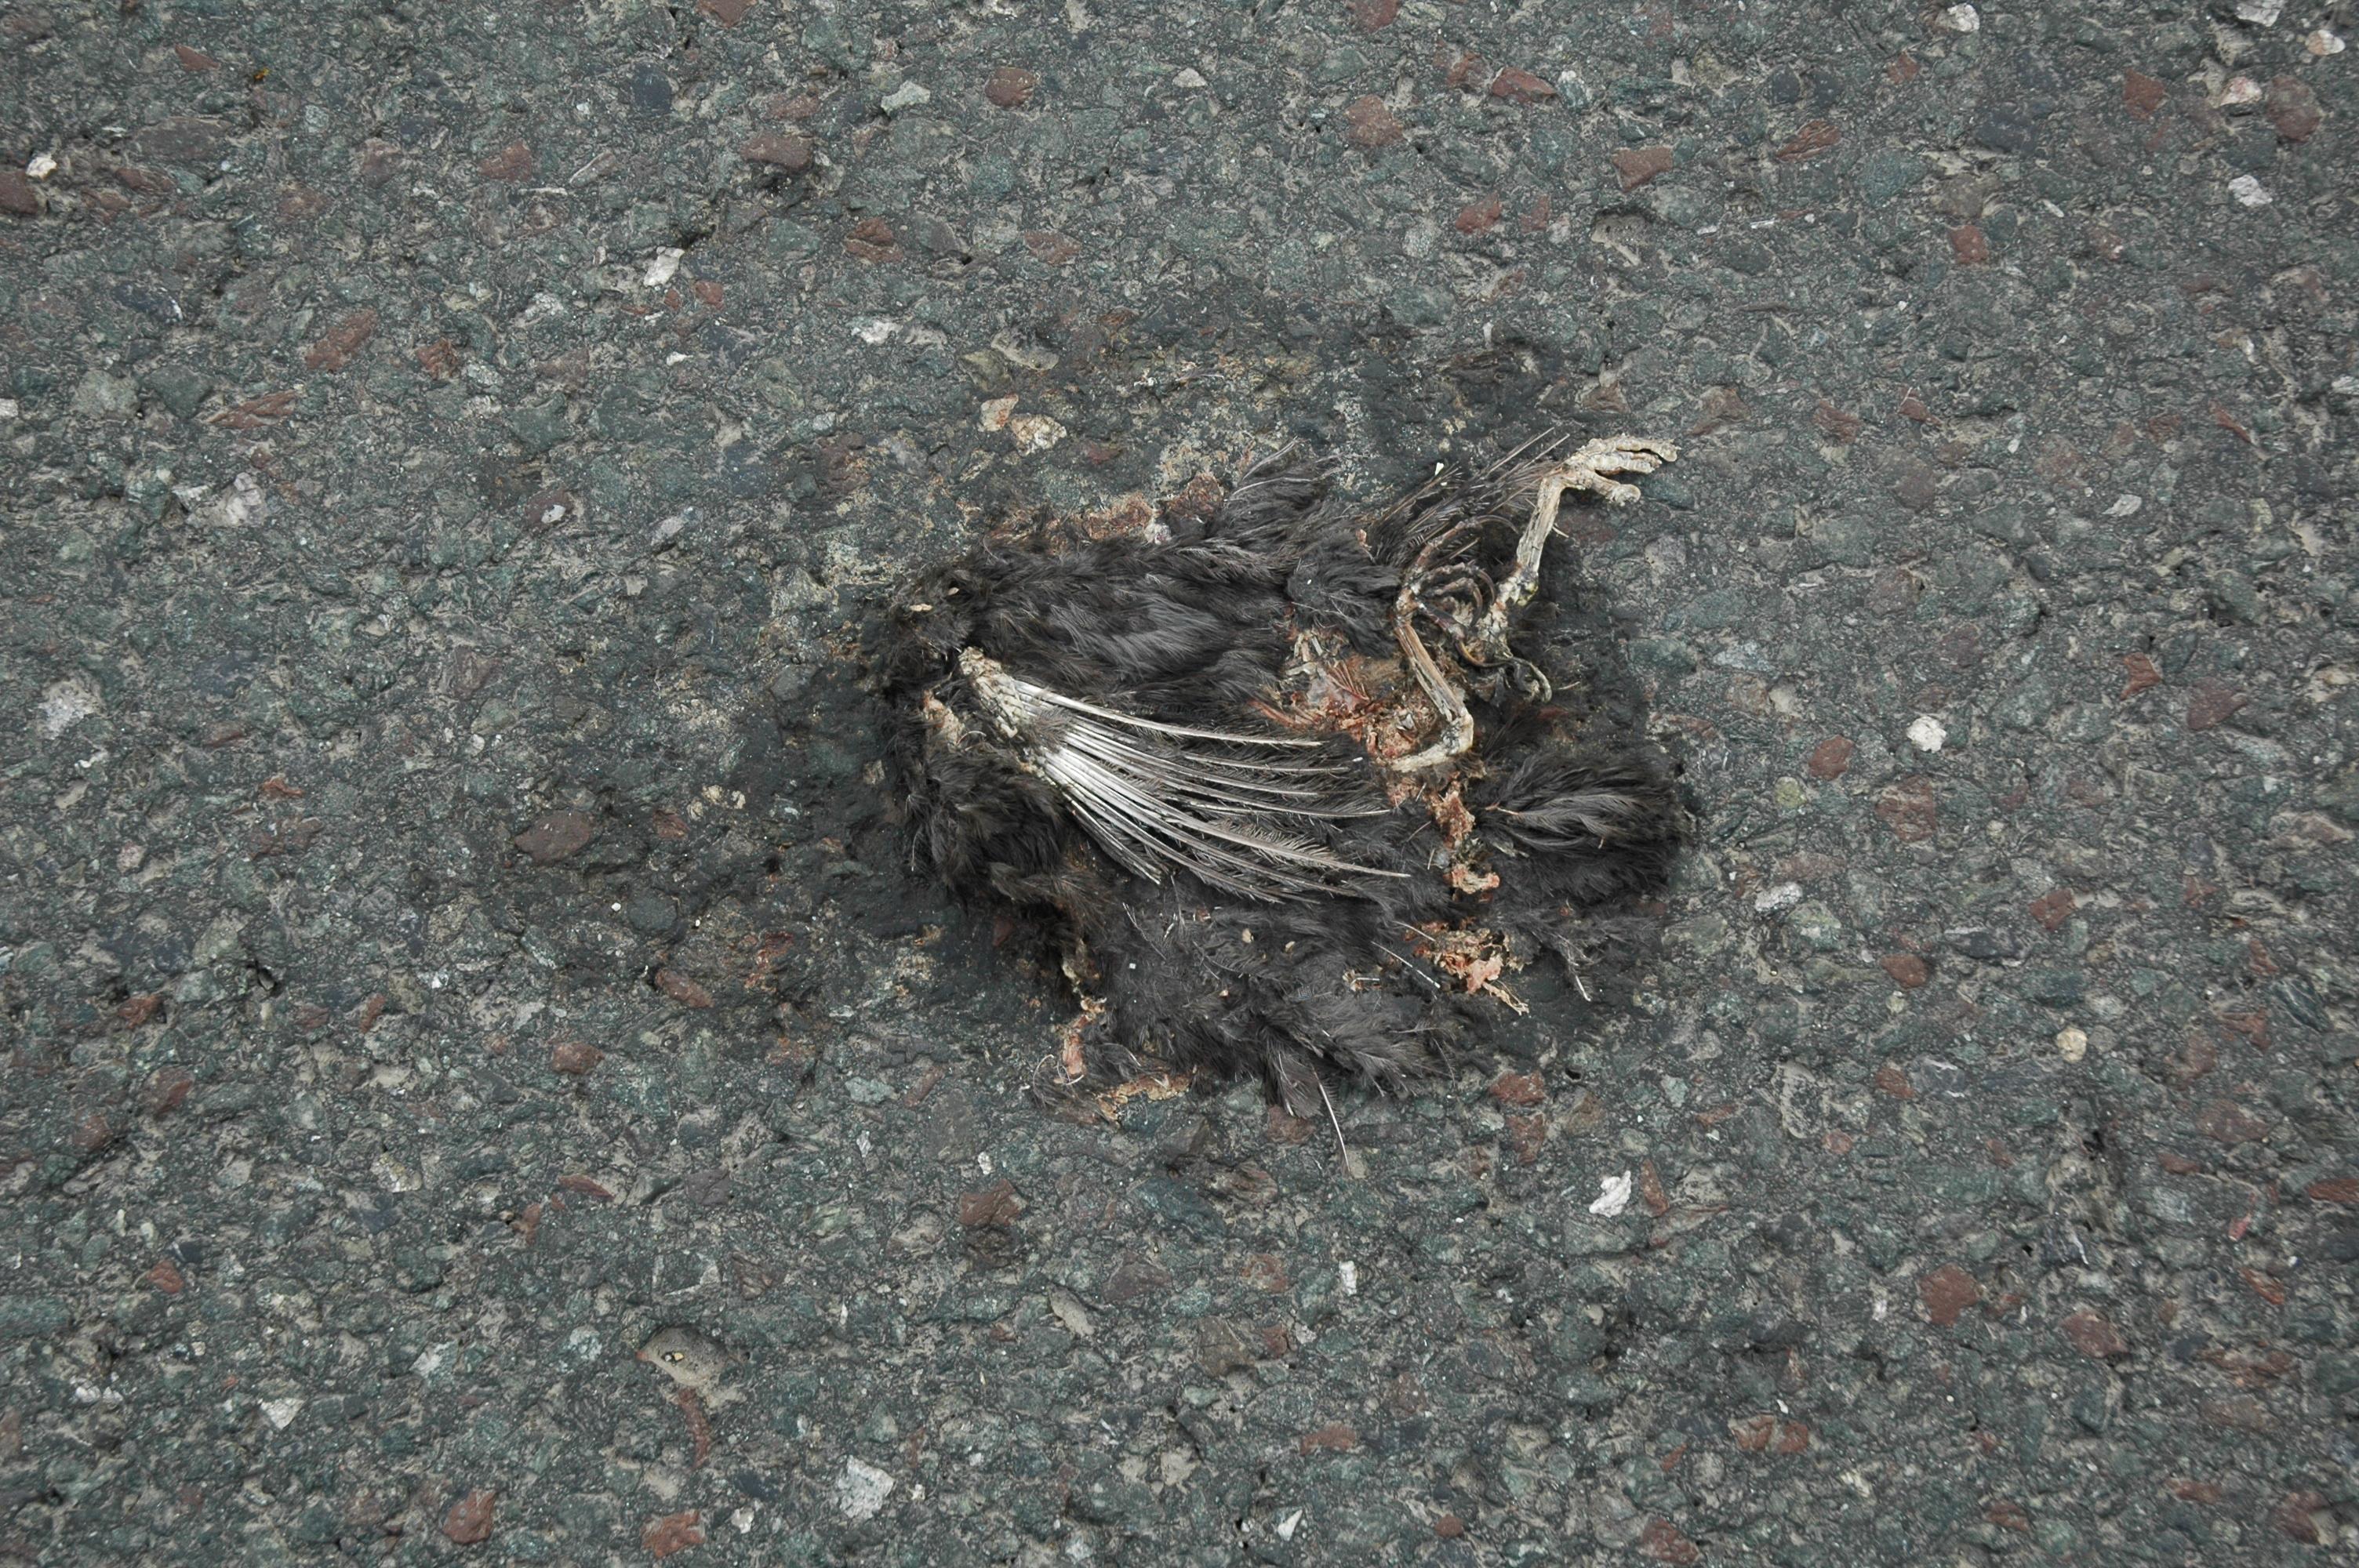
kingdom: Animalia
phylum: Chordata
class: Aves
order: Passeriformes
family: Turdidae
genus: Turdus
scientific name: Turdus merula
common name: Common blackbird
